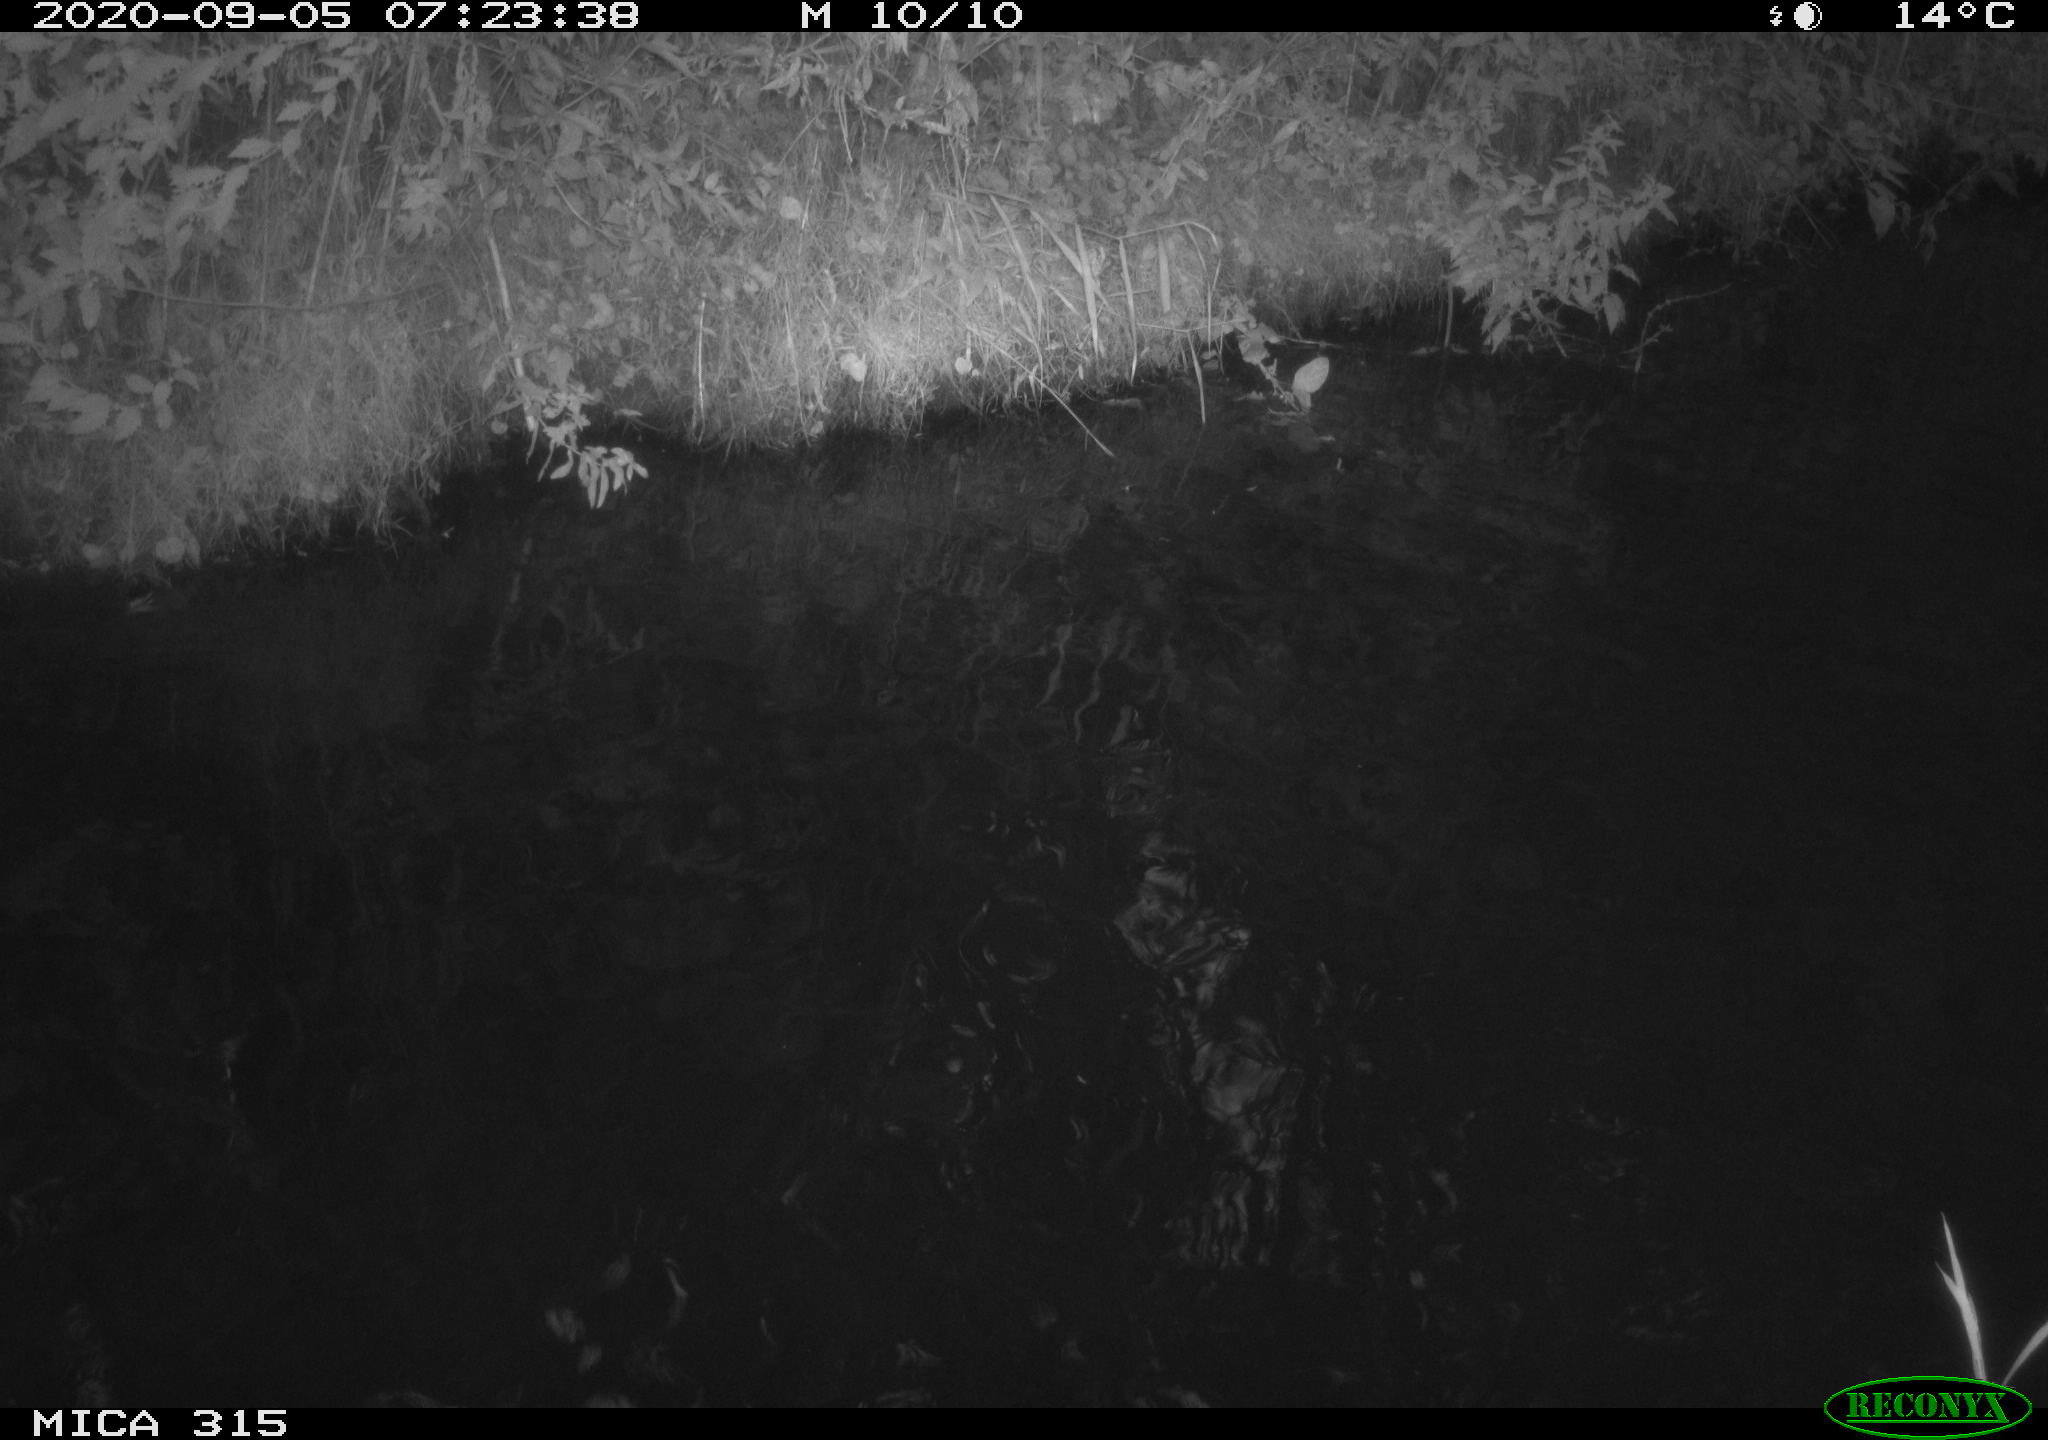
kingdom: Animalia
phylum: Chordata
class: Aves
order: Anseriformes
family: Anatidae
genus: Anas
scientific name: Anas platyrhynchos
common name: Mallard
